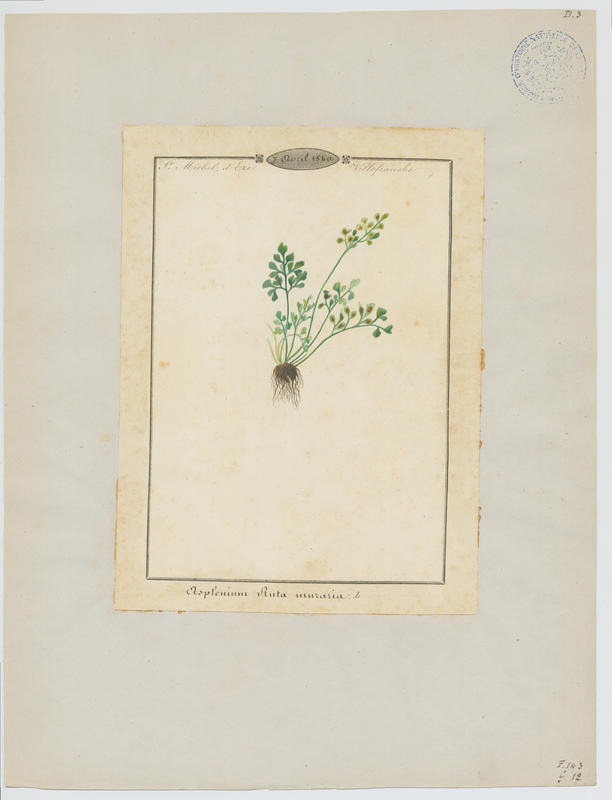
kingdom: Plantae
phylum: Tracheophyta
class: Polypodiopsida
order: Polypodiales
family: Aspleniaceae
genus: Asplenium
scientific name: Asplenium ruta-muraria
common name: Wall-rue
